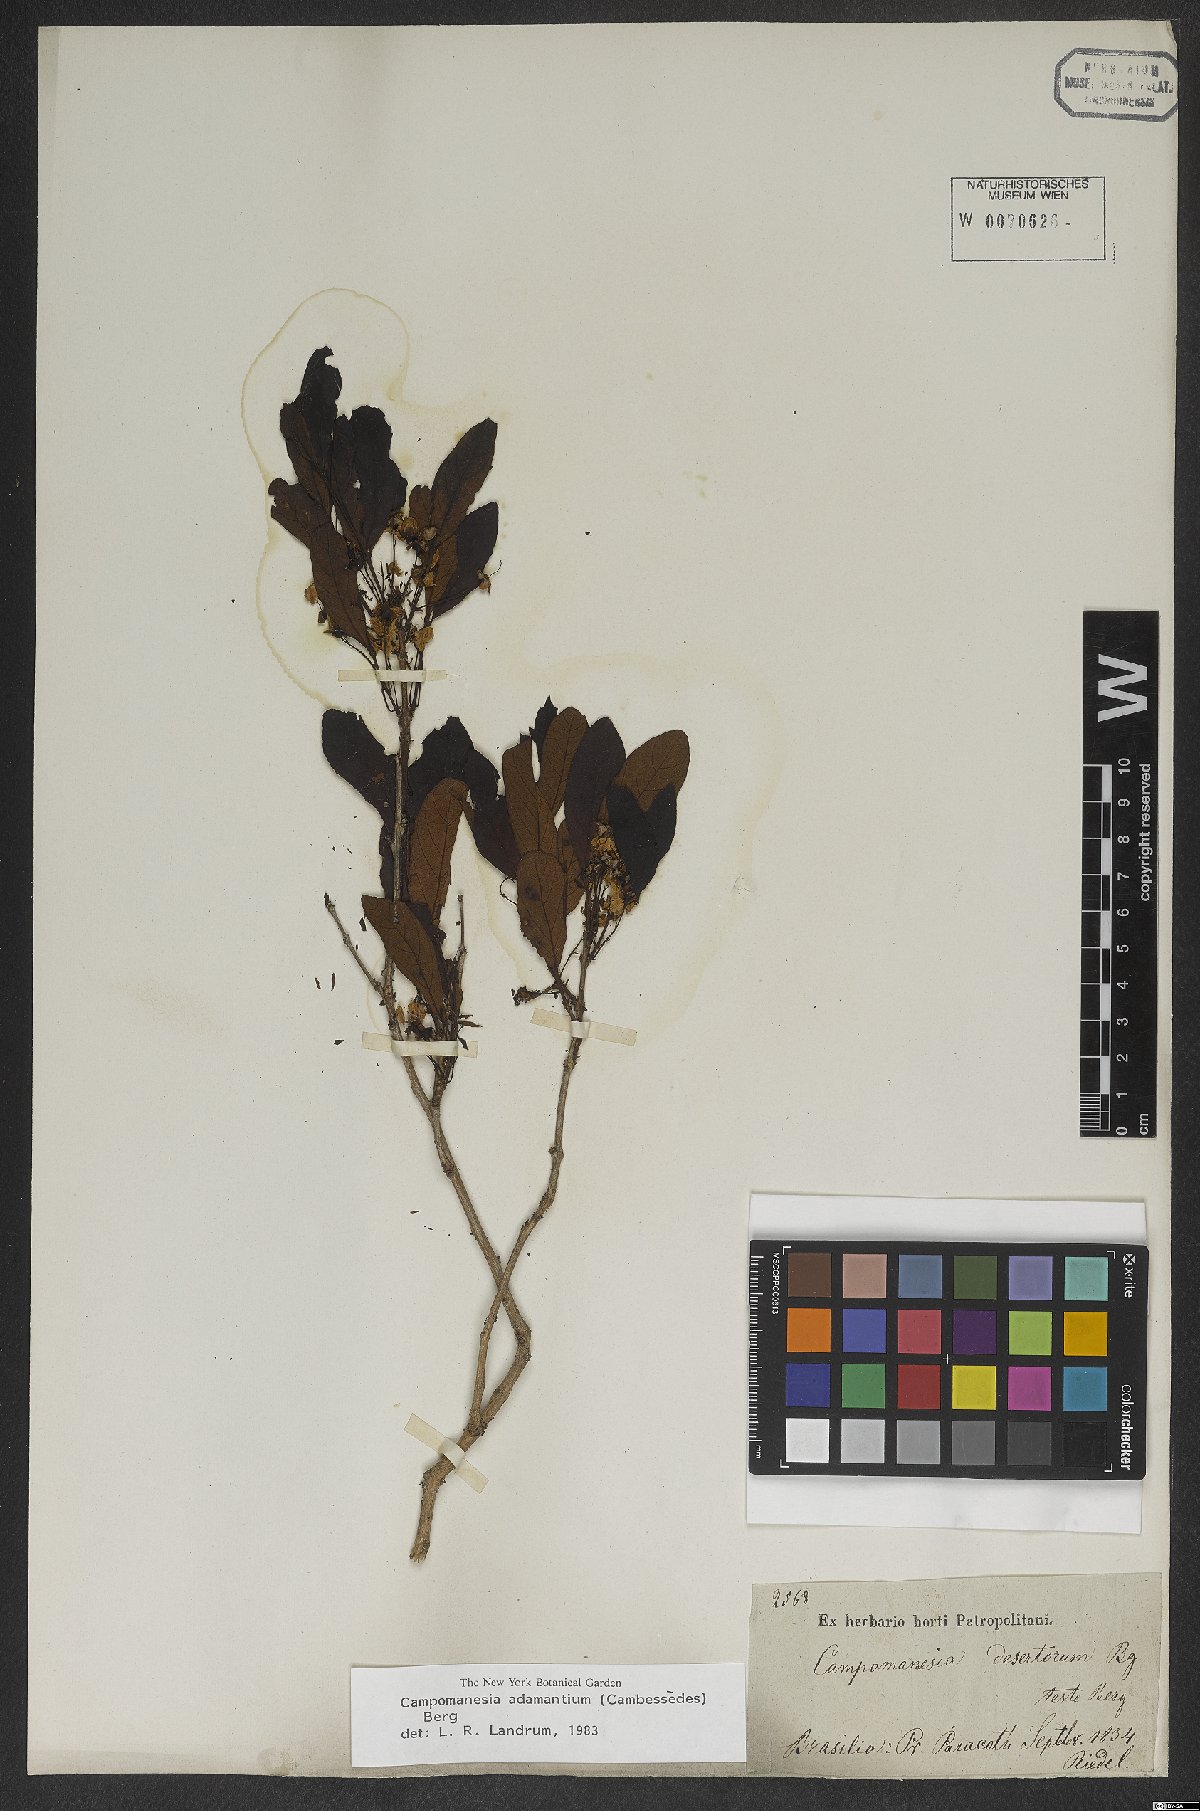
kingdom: Plantae
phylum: Tracheophyta
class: Magnoliopsida
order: Myrtales
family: Myrtaceae
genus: Campomanesia
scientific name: Campomanesia adamantium
